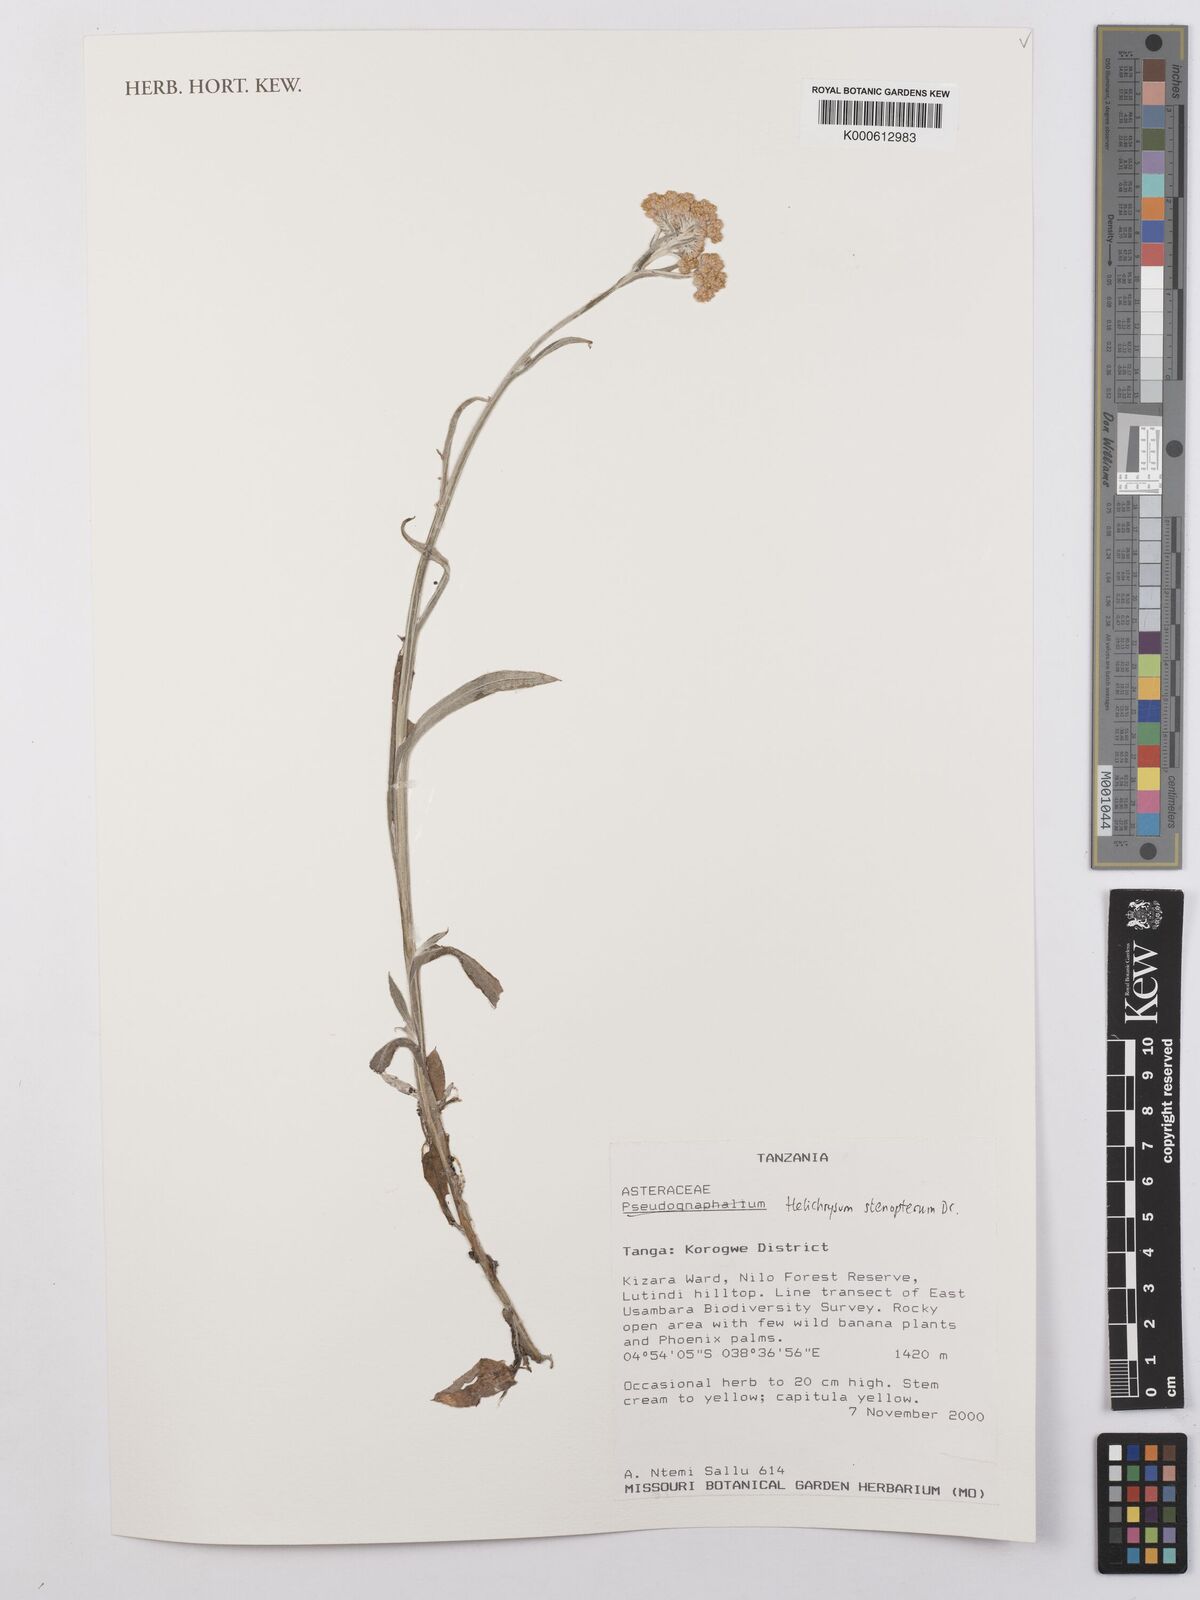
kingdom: Plantae
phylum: Tracheophyta
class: Magnoliopsida
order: Asterales
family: Asteraceae
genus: Helichrysum
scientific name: Helichrysum stenopterum
